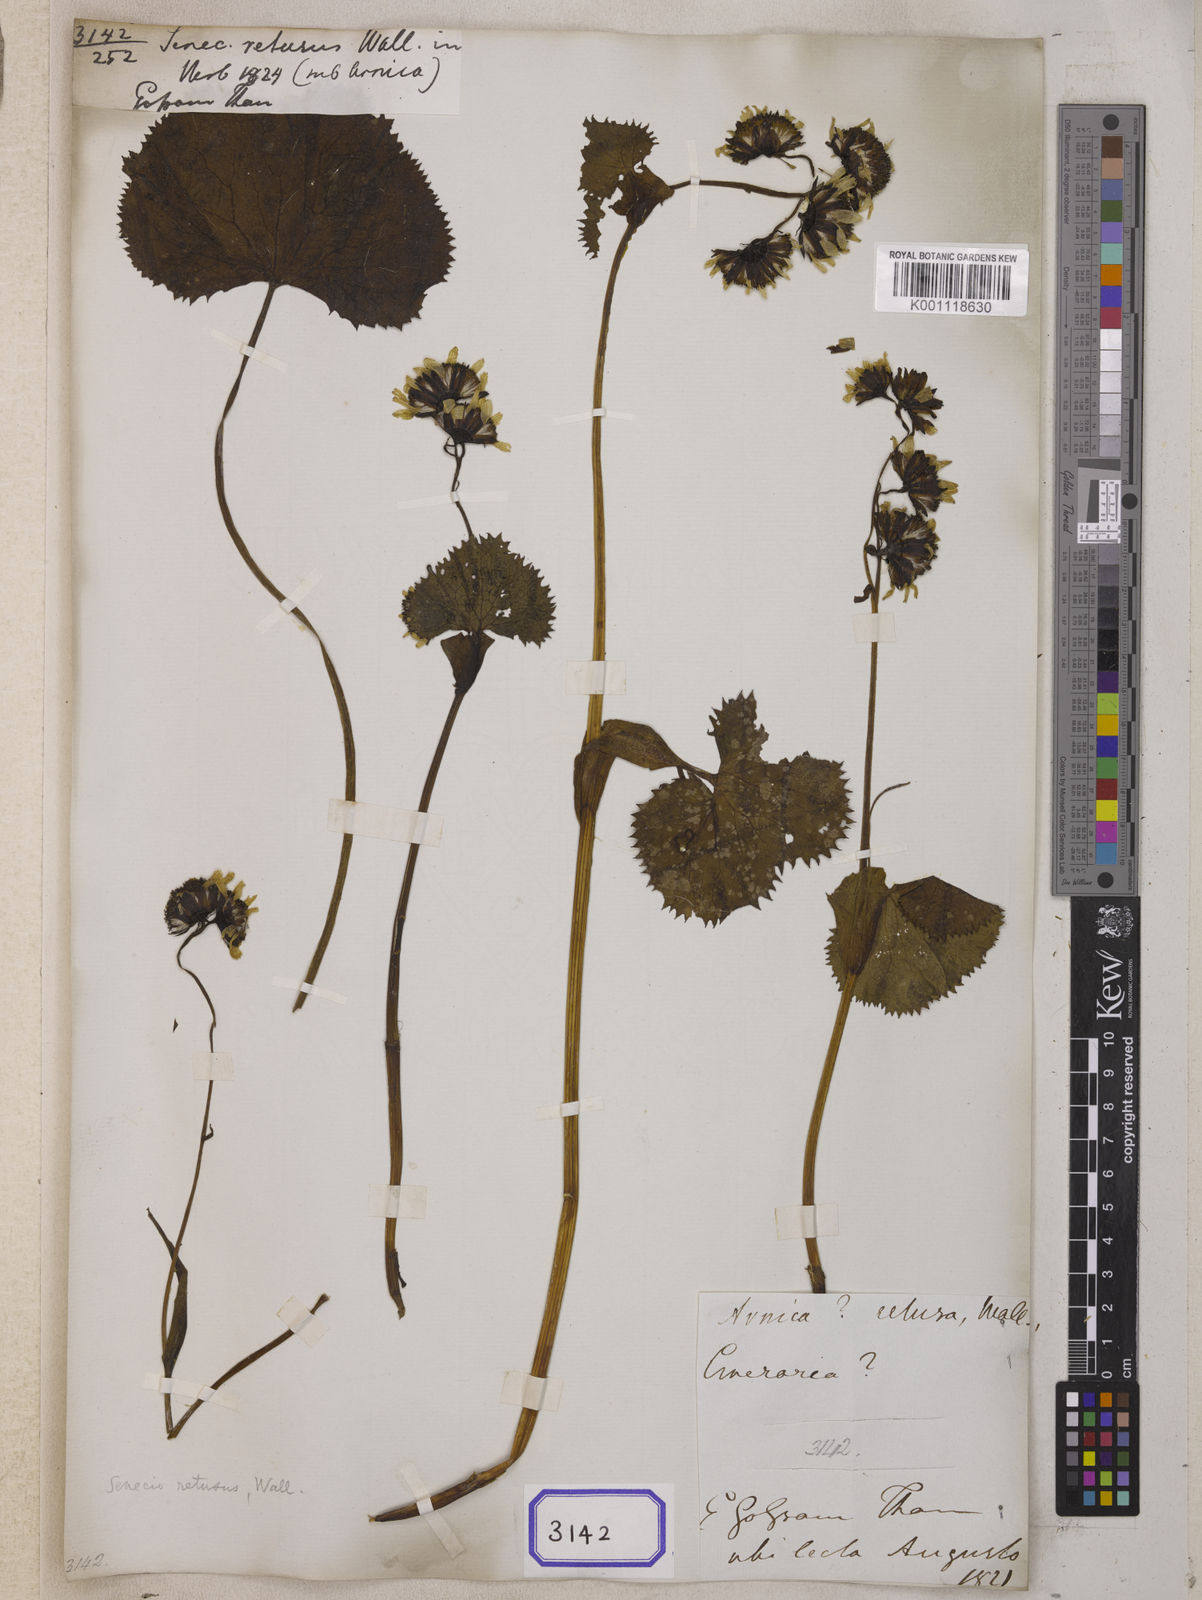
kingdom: Plantae
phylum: Tracheophyta
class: Magnoliopsida
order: Asterales
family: Asteraceae
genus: Ligularia
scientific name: Ligularia retusa
